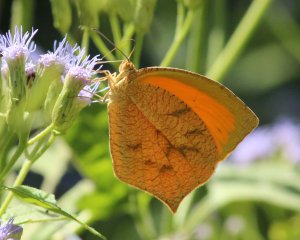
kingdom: Animalia
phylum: Arthropoda
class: Insecta
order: Lepidoptera
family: Pieridae
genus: Pyrisitia
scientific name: Pyrisitia proterpia
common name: Tailed Orange
